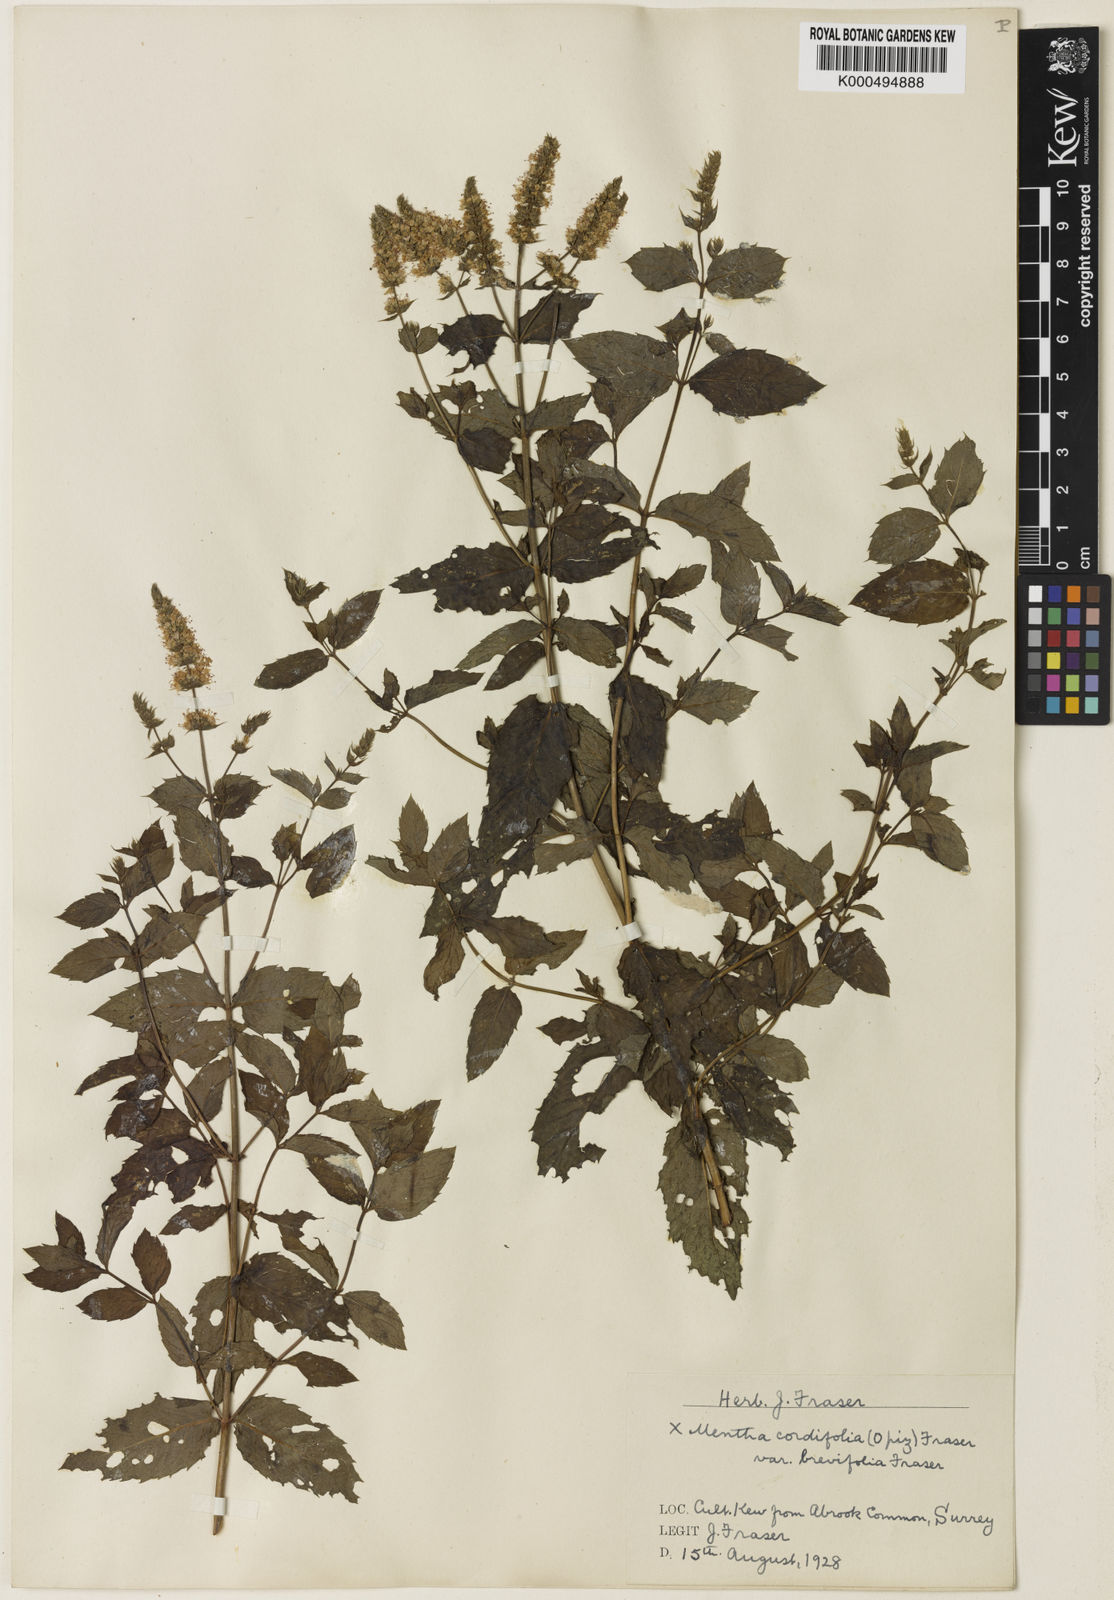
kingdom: Plantae
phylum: Tracheophyta
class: Magnoliopsida
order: Lamiales
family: Lamiaceae
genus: Mentha
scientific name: Mentha villosa
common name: Apple mint
